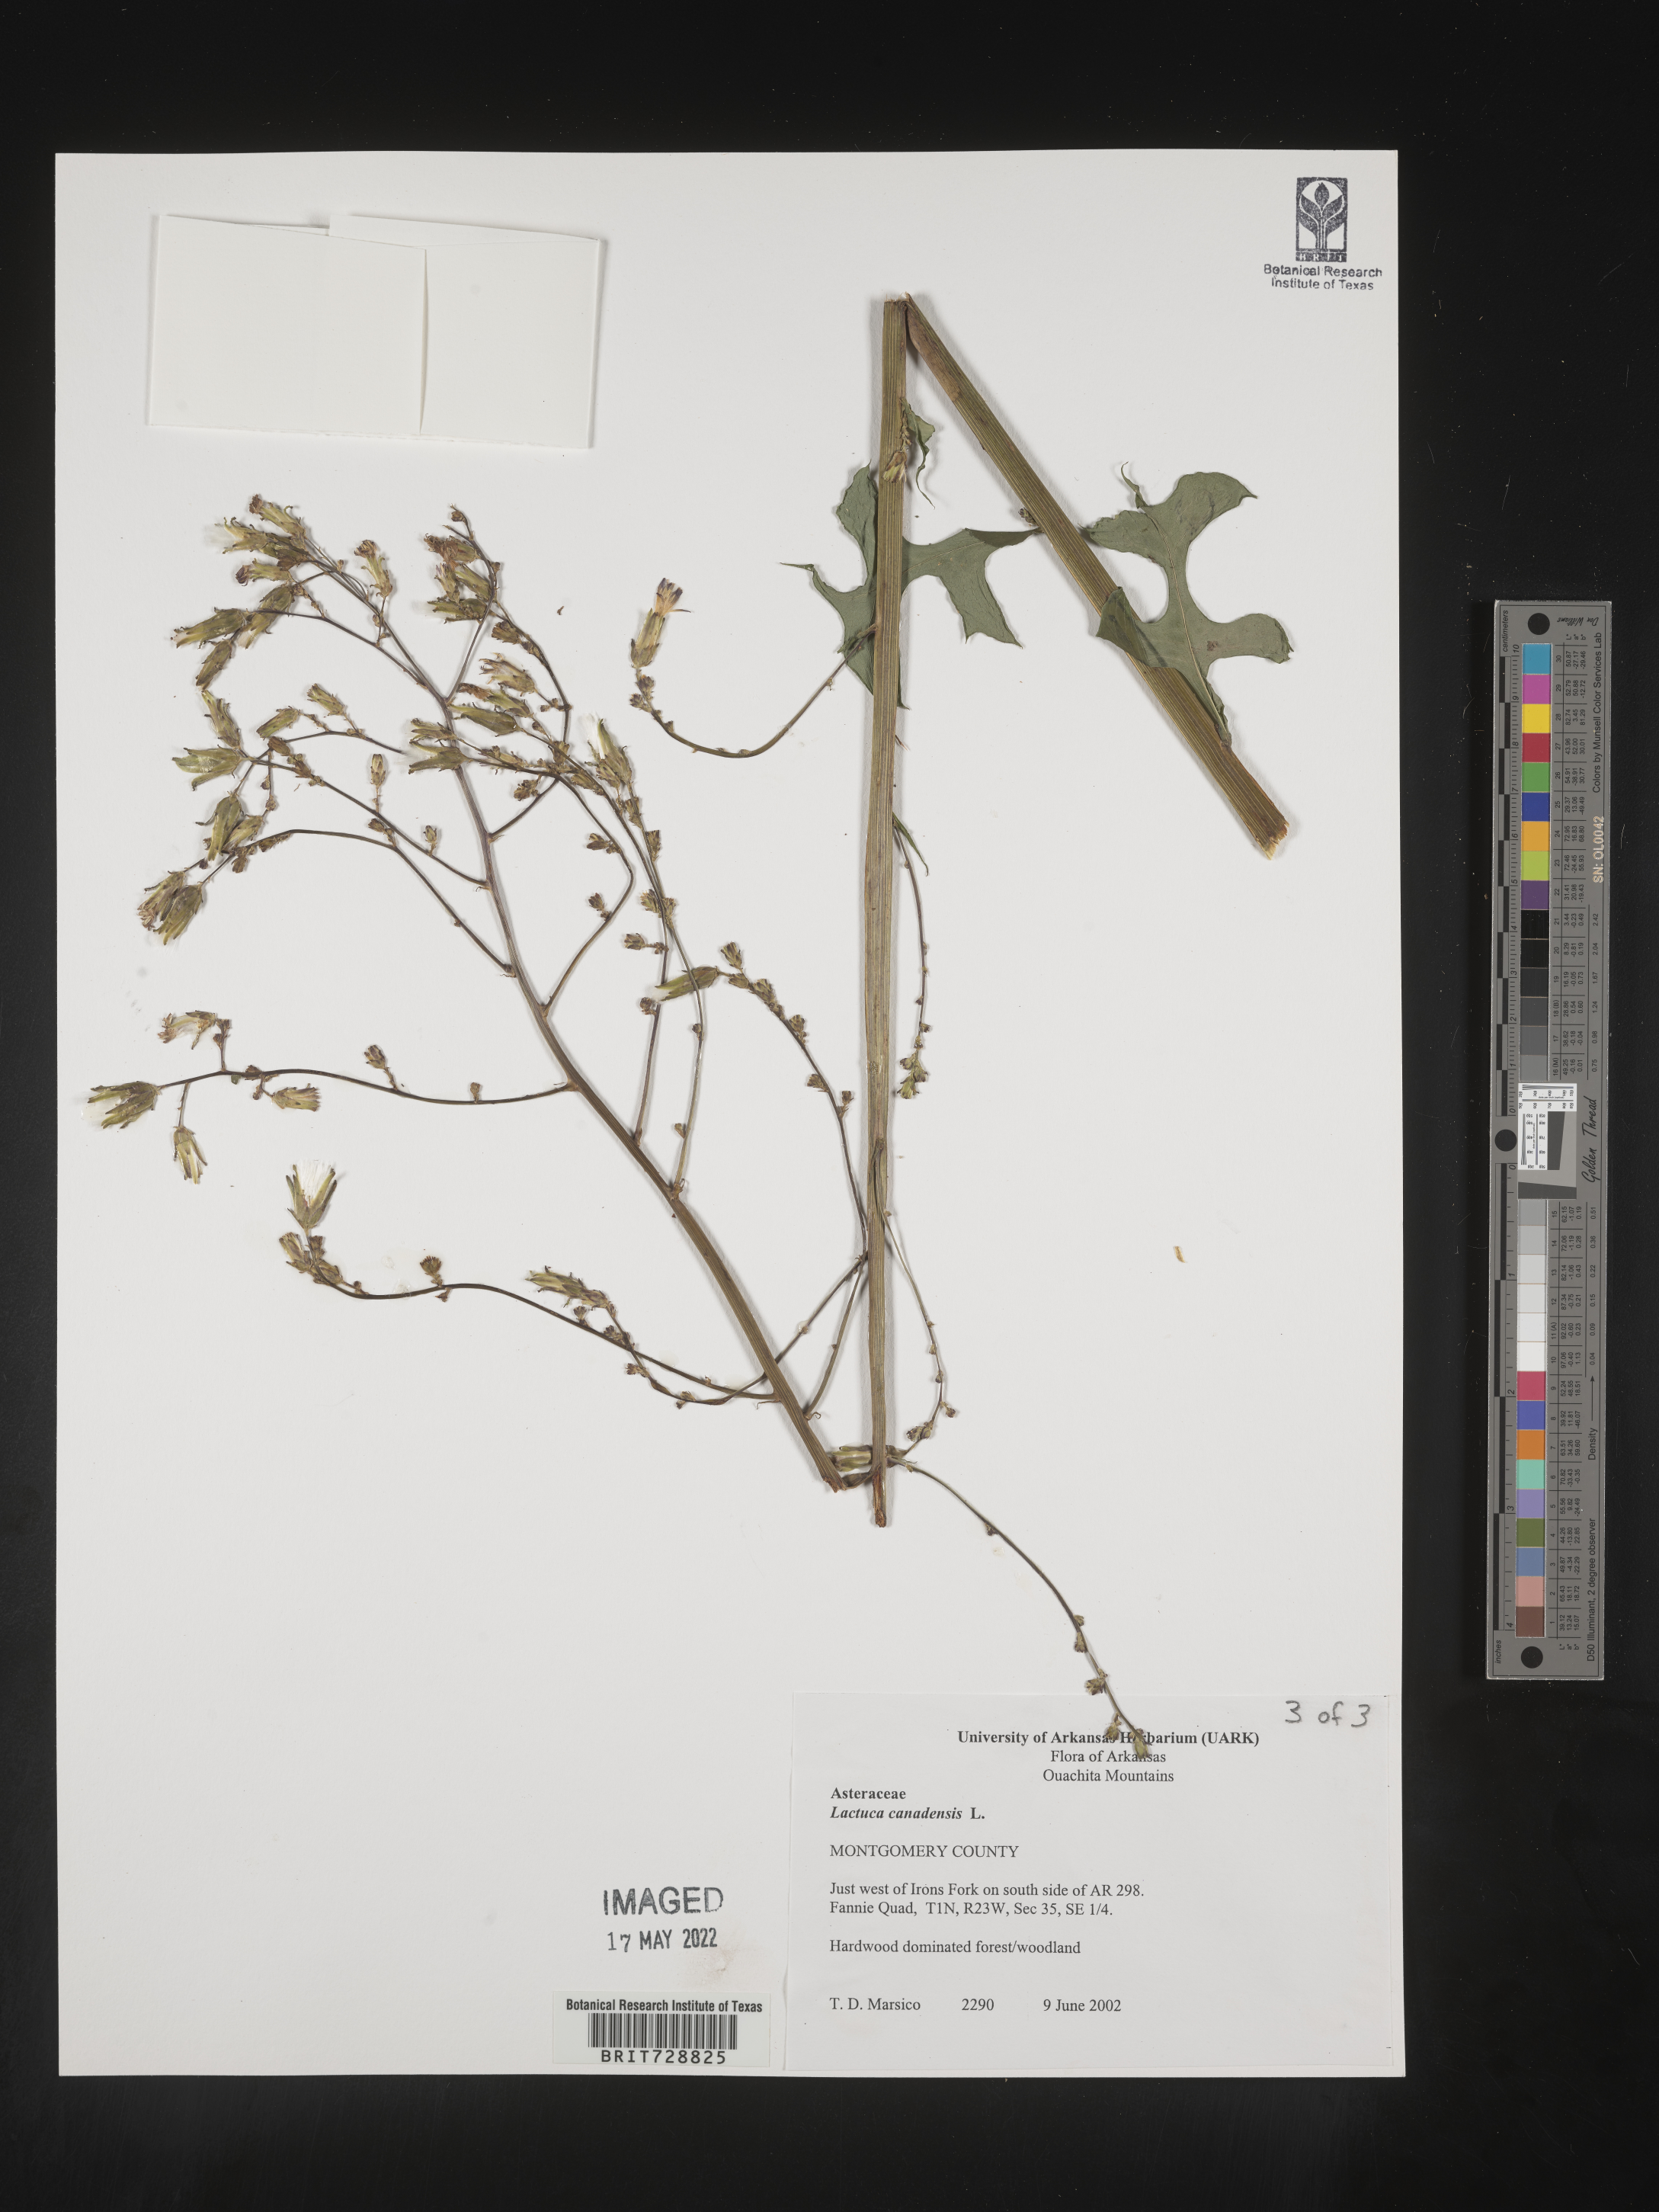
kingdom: Plantae
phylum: Tracheophyta
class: Magnoliopsida
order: Asterales
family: Asteraceae
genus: Lactuca
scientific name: Lactuca canadensis
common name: Canada lettuce
